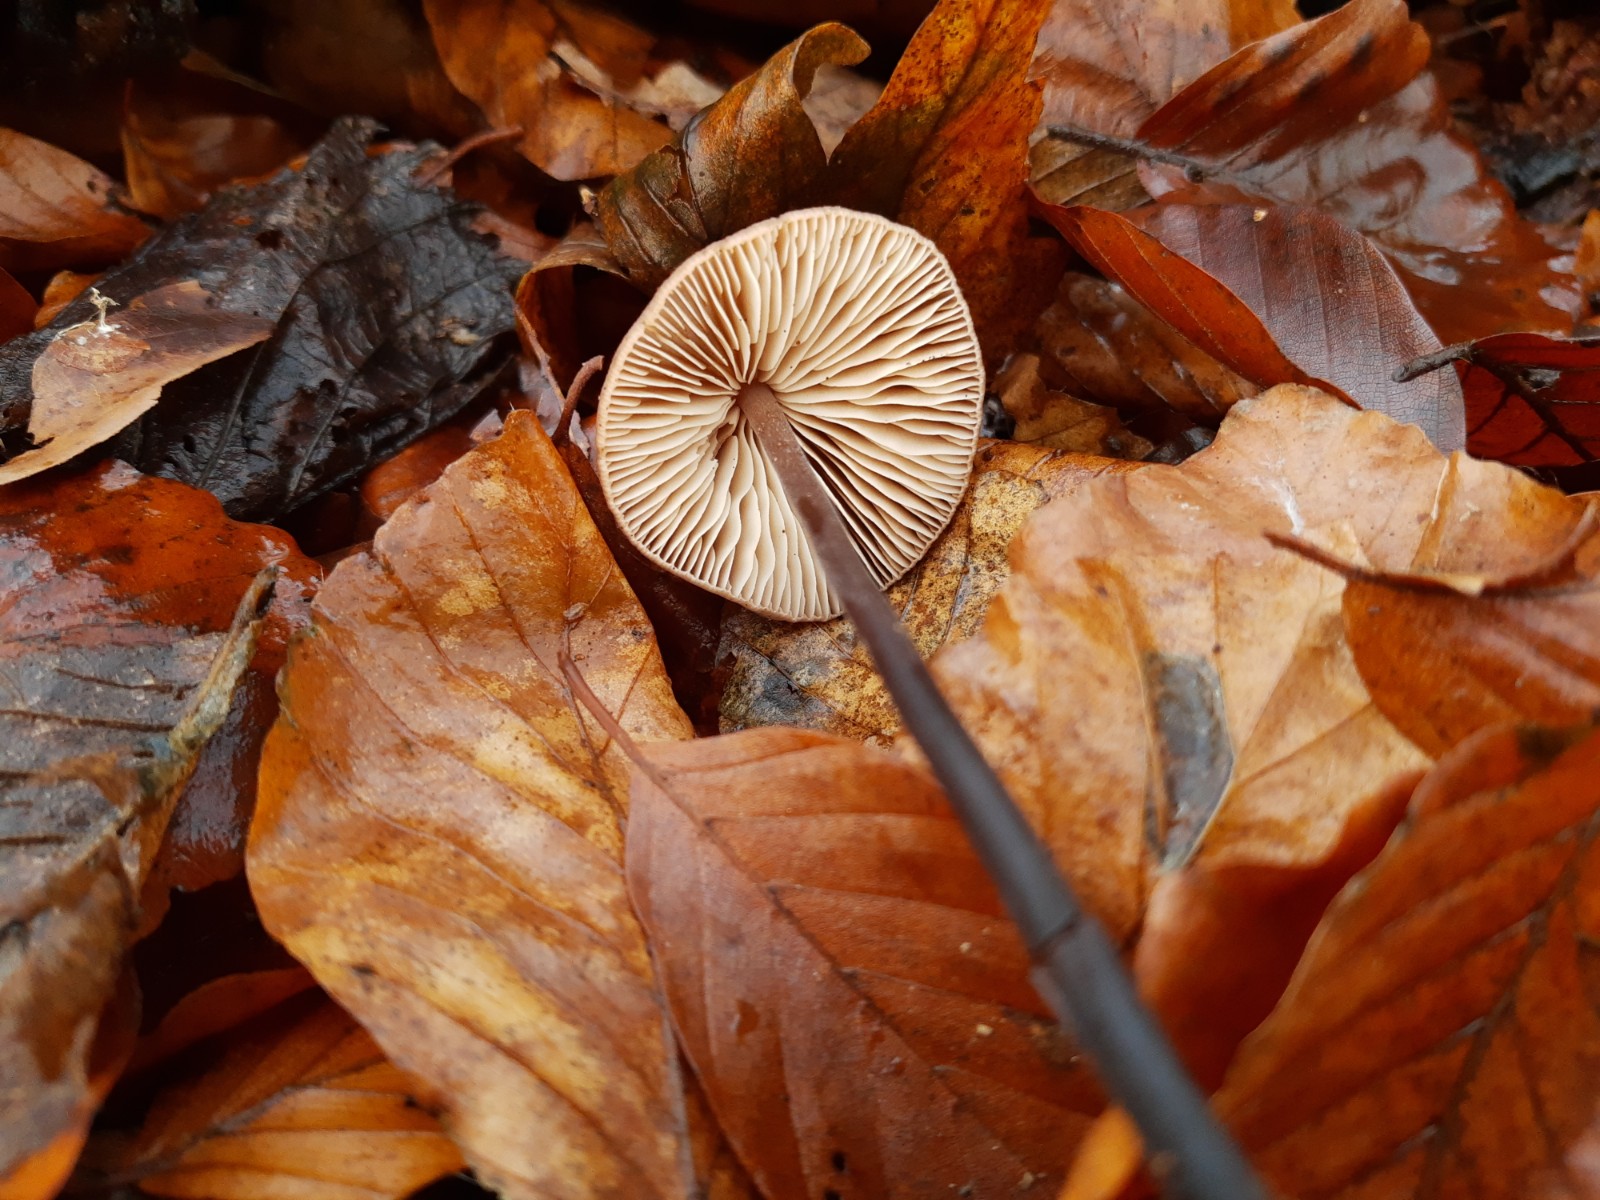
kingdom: Fungi
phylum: Basidiomycota
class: Agaricomycetes
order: Agaricales
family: Omphalotaceae
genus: Mycetinis
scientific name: Mycetinis alliaceus
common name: stor løghat
